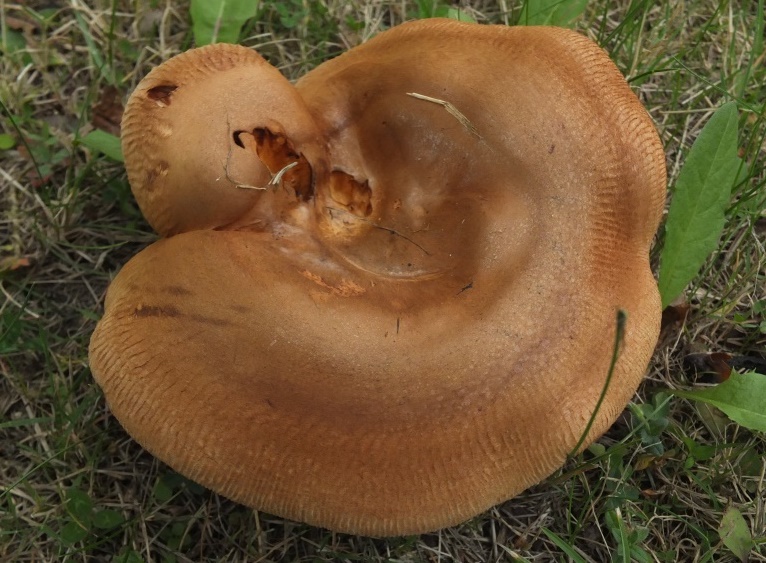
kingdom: Fungi
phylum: Basidiomycota
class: Agaricomycetes
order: Boletales
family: Paxillaceae
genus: Paxillus
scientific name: Paxillus obscurisporus
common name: mahognisporet netbladhat
